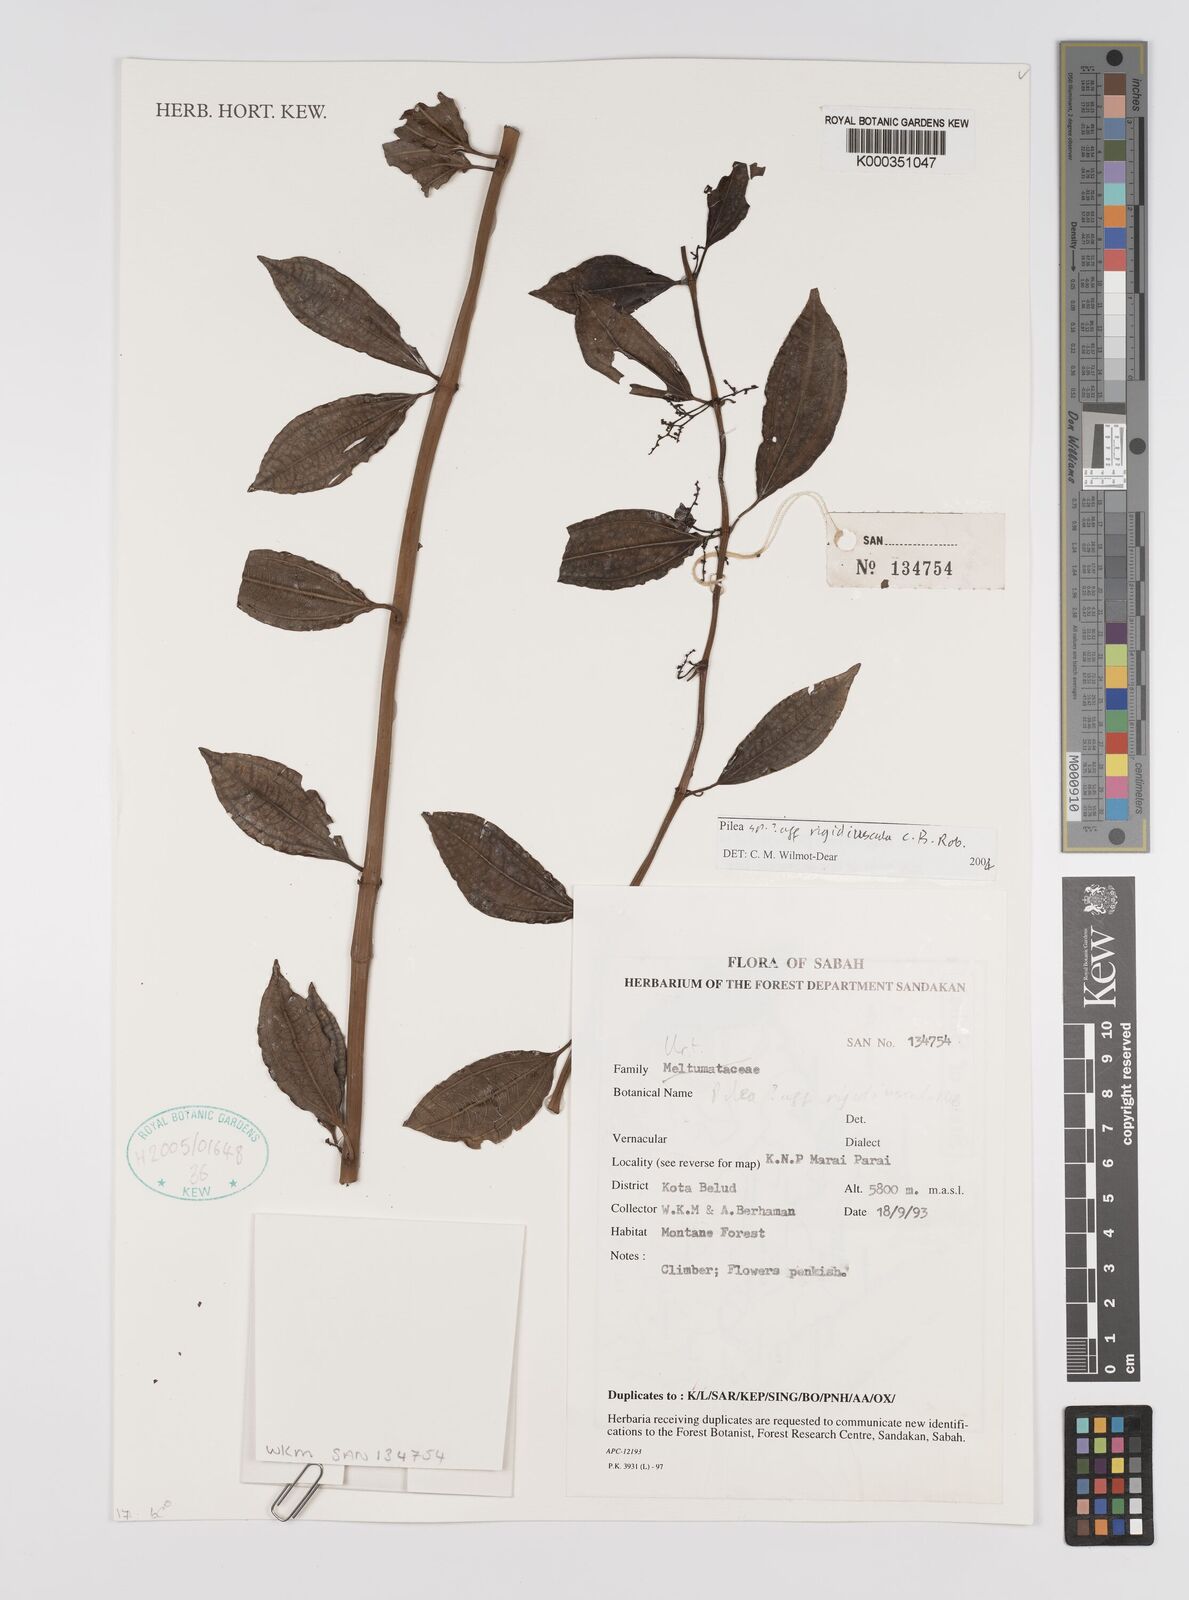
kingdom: Plantae
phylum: Tracheophyta
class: Magnoliopsida
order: Rosales
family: Urticaceae
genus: Pilea
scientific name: Pilea
